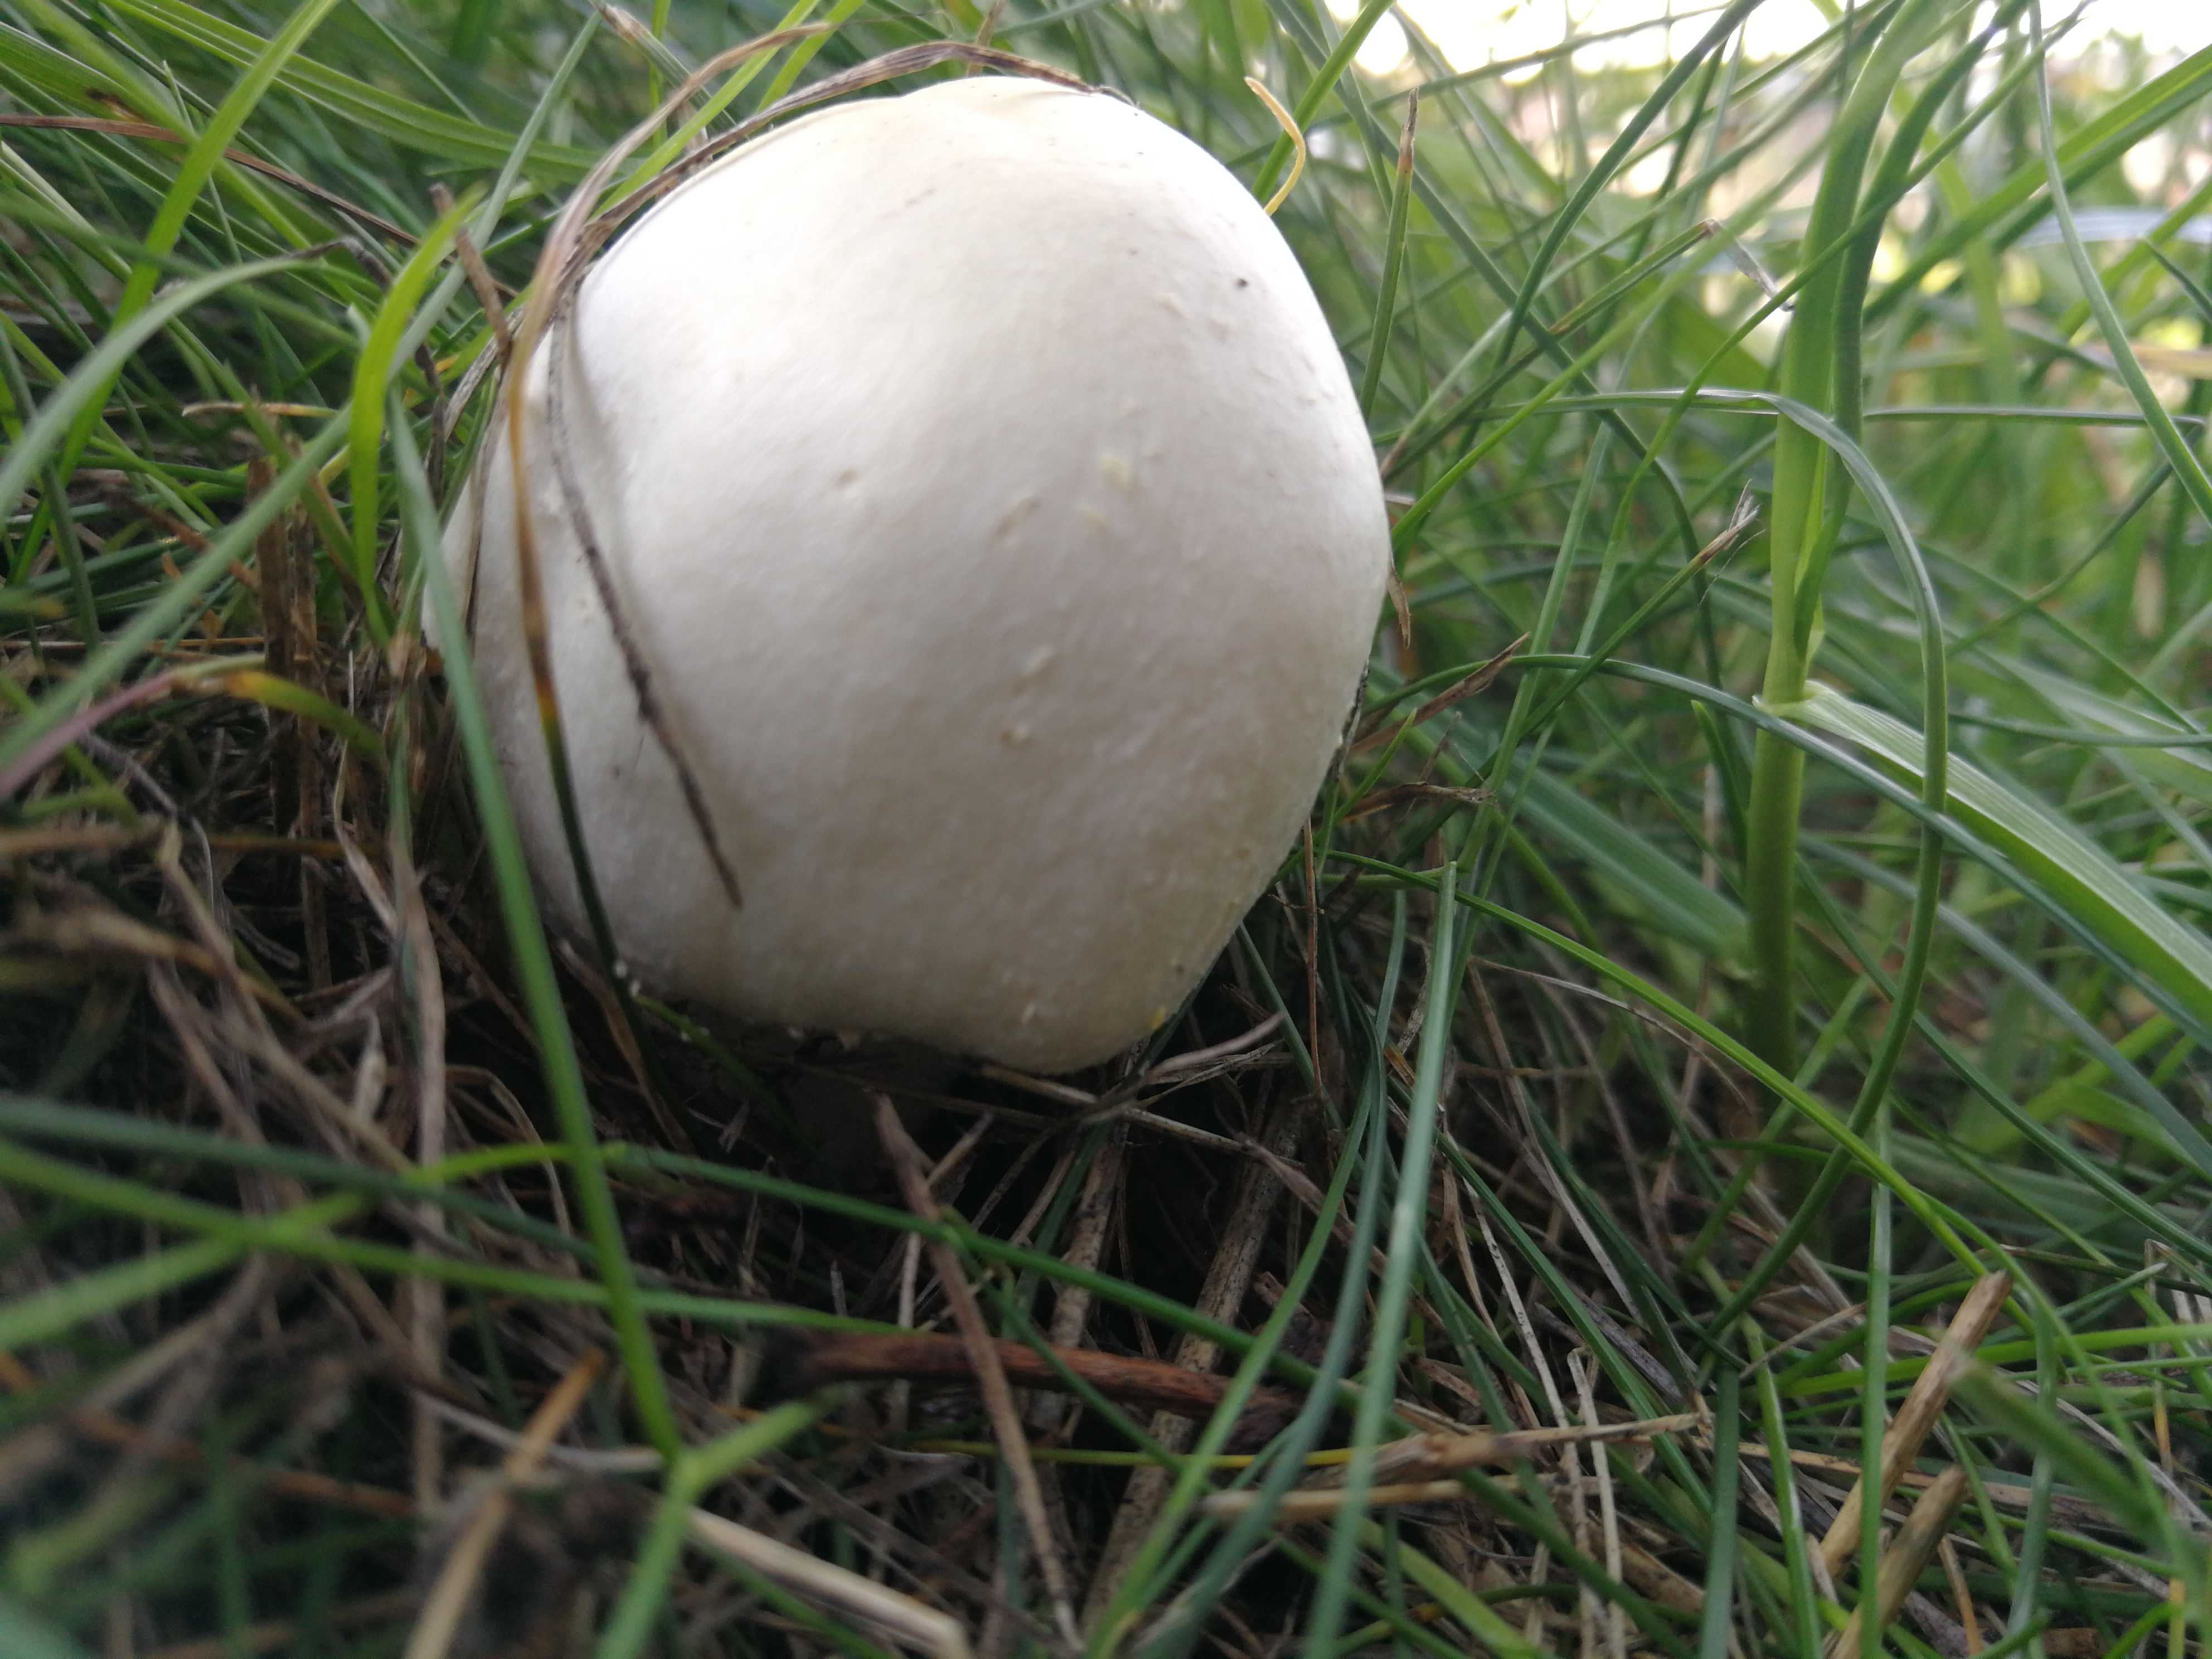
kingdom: Fungi
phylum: Basidiomycota
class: Agaricomycetes
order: Agaricales
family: Agaricaceae
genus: Agaricus
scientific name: Agaricus
